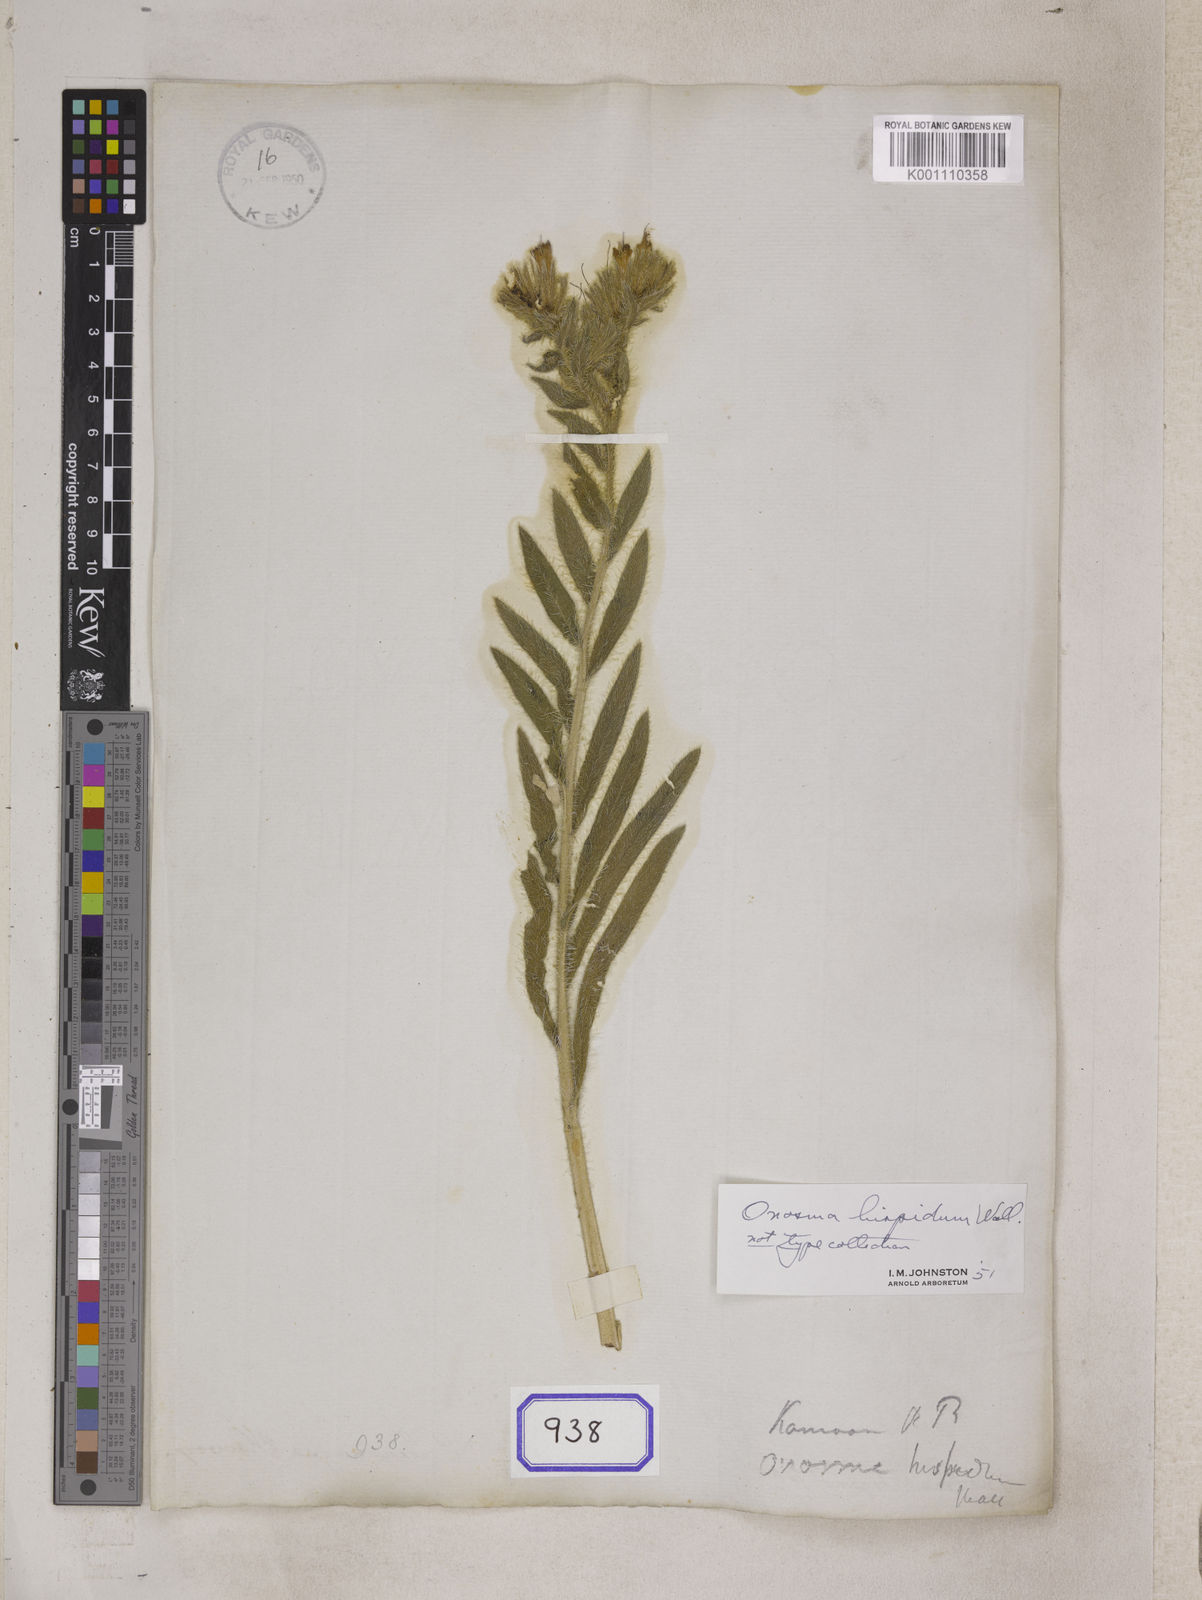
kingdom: Plantae
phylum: Tracheophyta
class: Magnoliopsida
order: Boraginales
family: Boraginaceae
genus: Onosma
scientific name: Onosma
